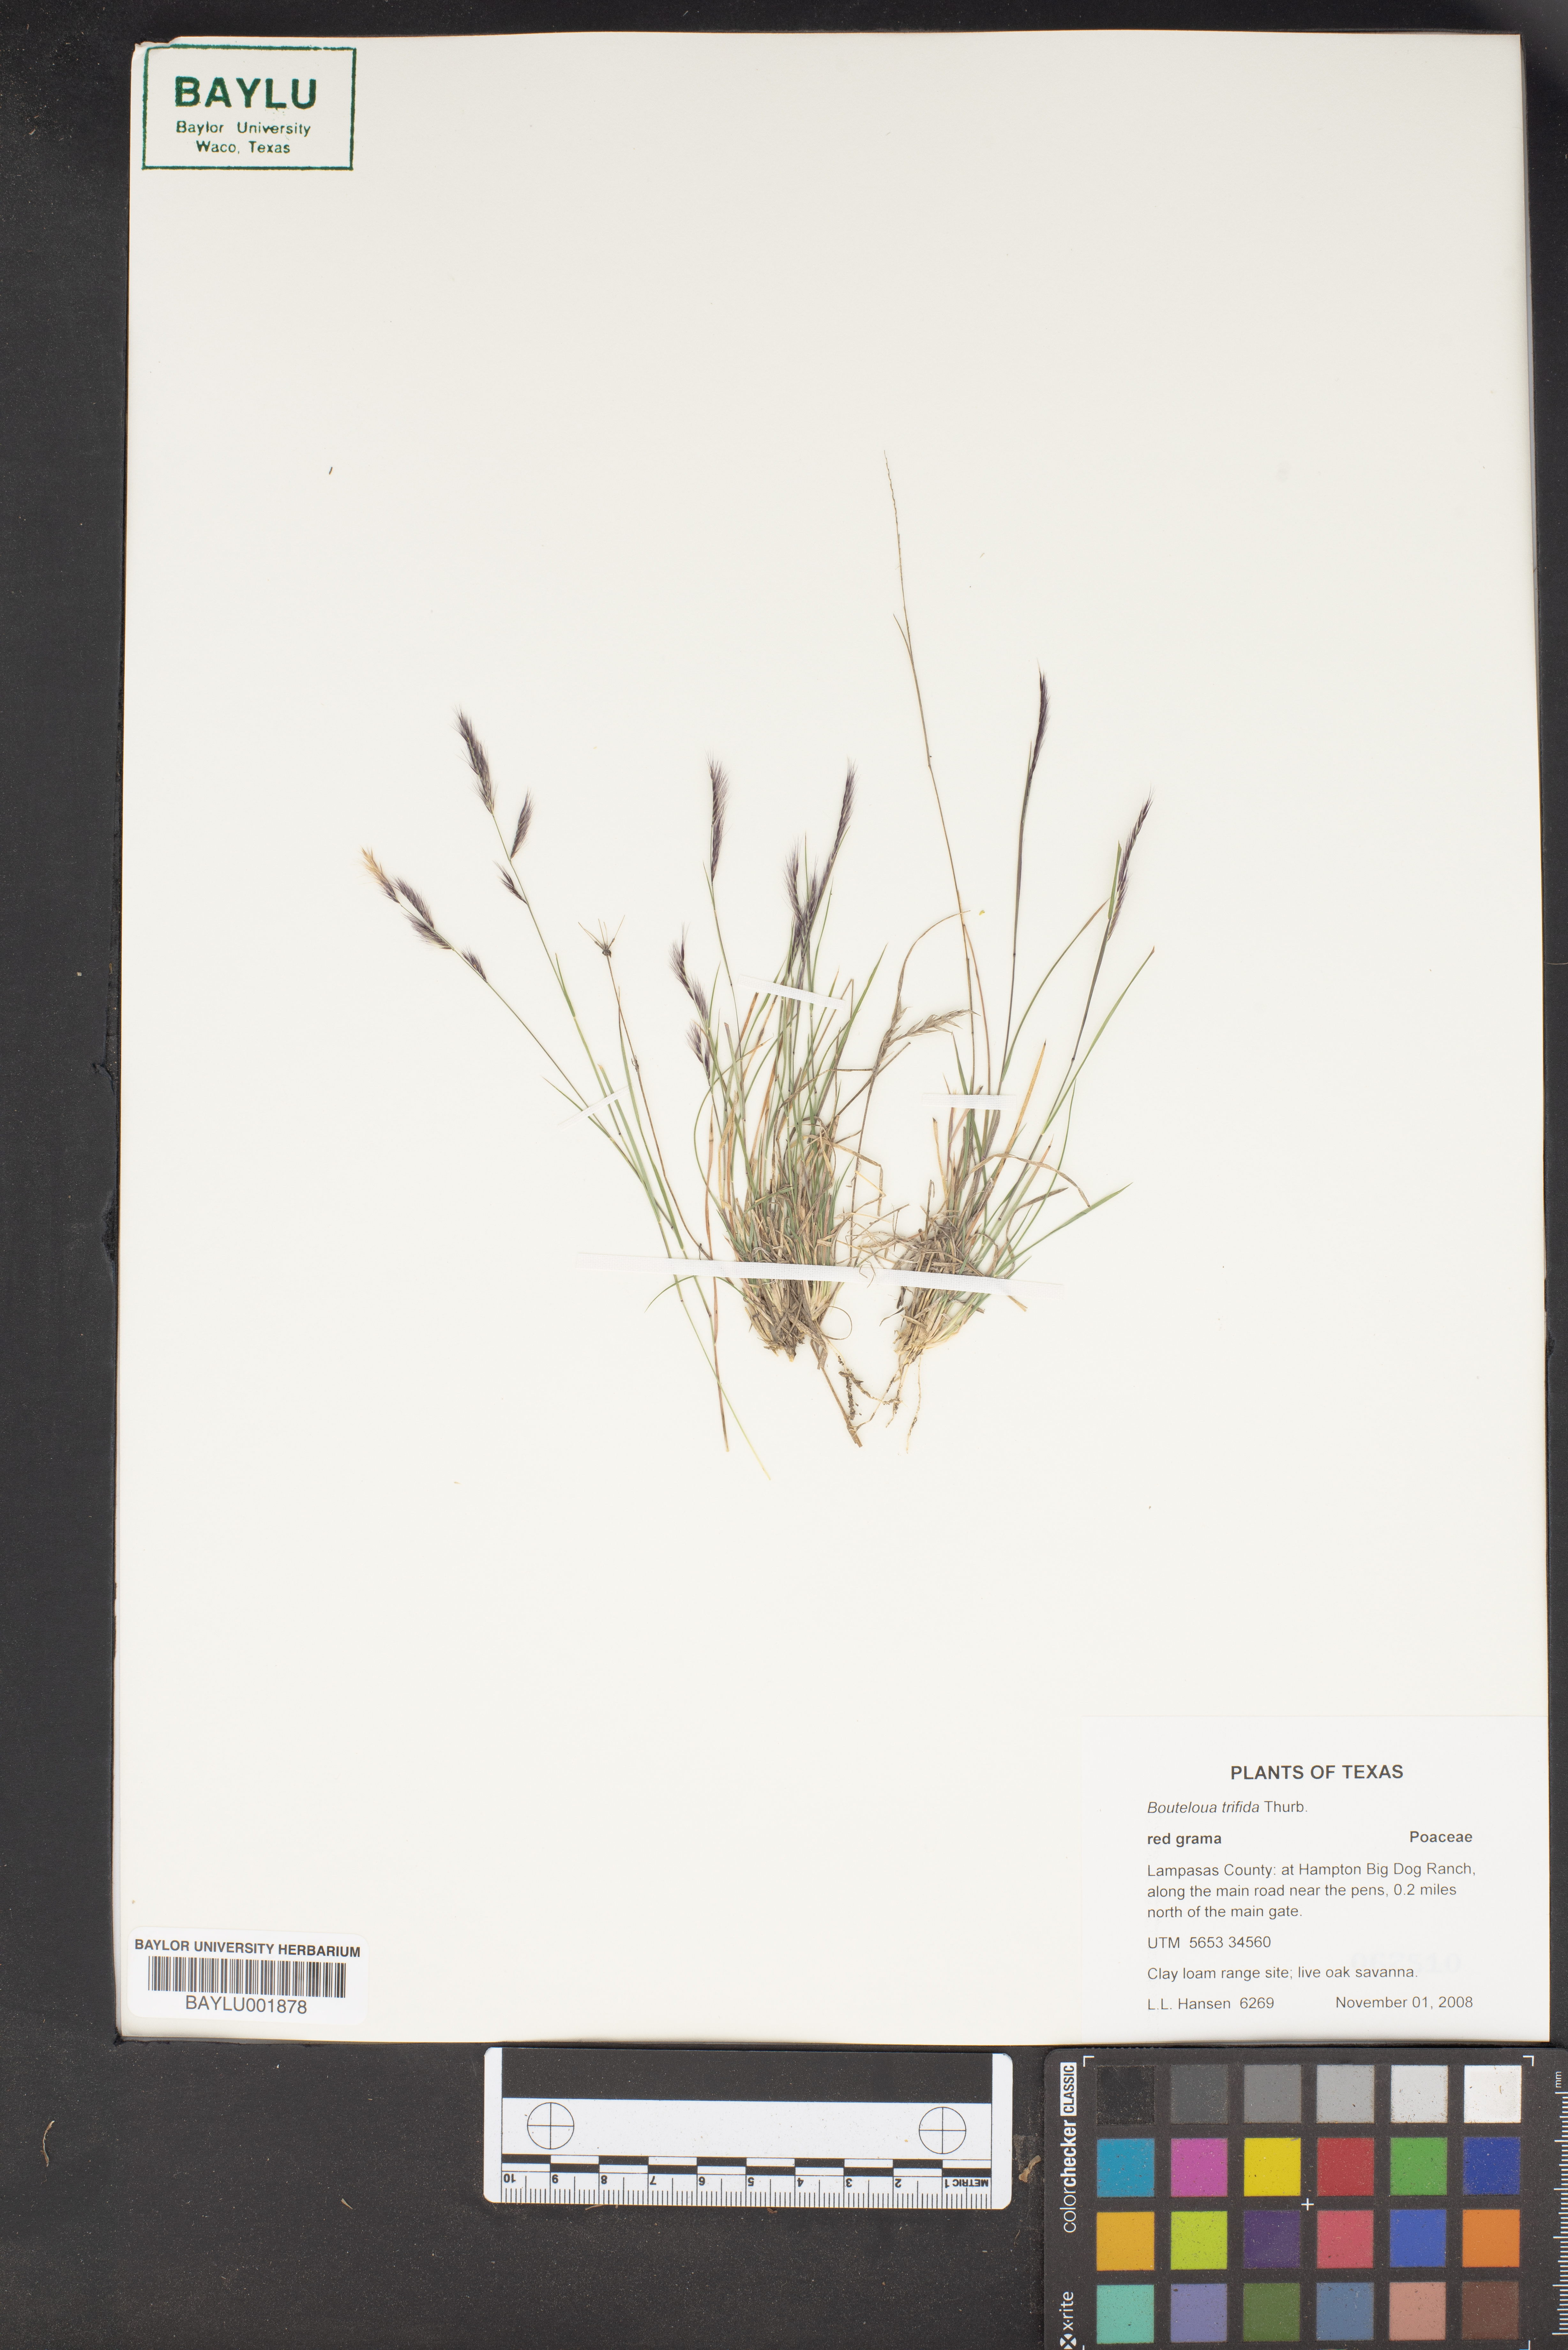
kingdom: Plantae
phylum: Tracheophyta
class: Liliopsida
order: Poales
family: Poaceae
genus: Bouteloua
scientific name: Bouteloua trifida
